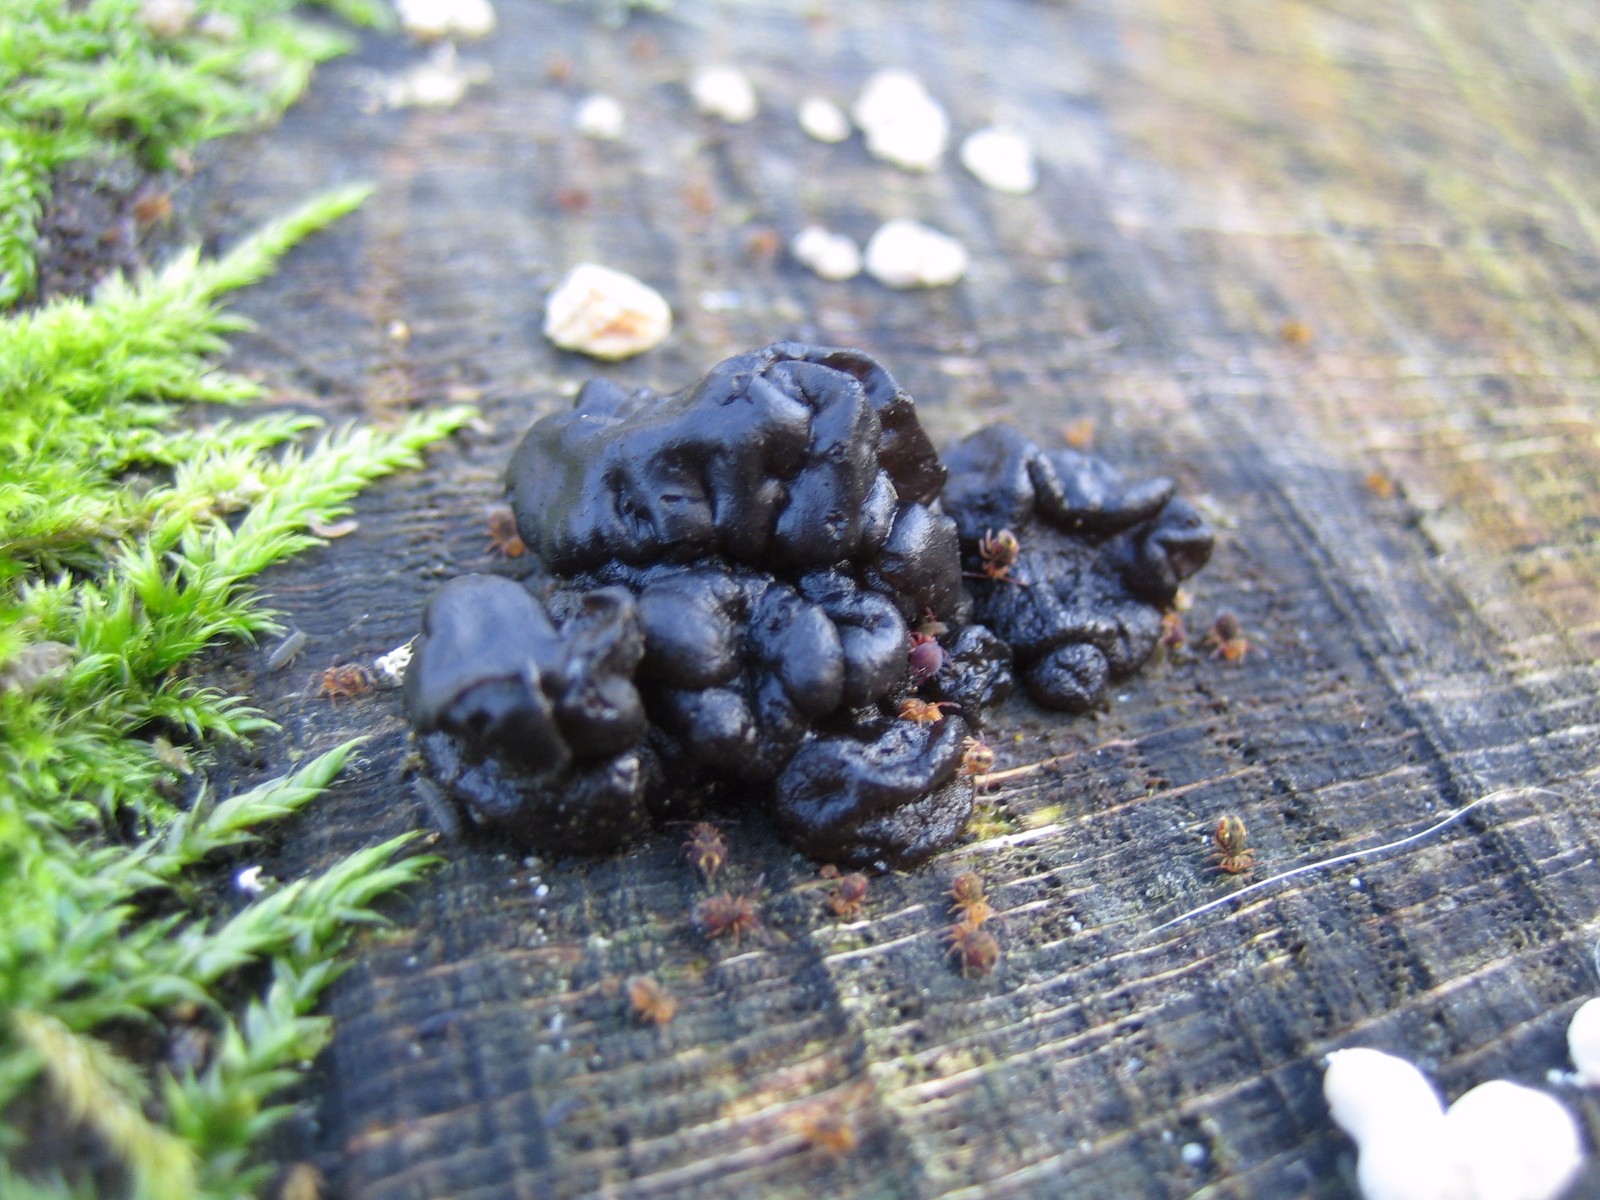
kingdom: Fungi
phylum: Basidiomycota
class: Agaricomycetes
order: Auriculariales
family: Auriculariaceae
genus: Exidia
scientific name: Exidia nigricans
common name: almindelig bævretop
